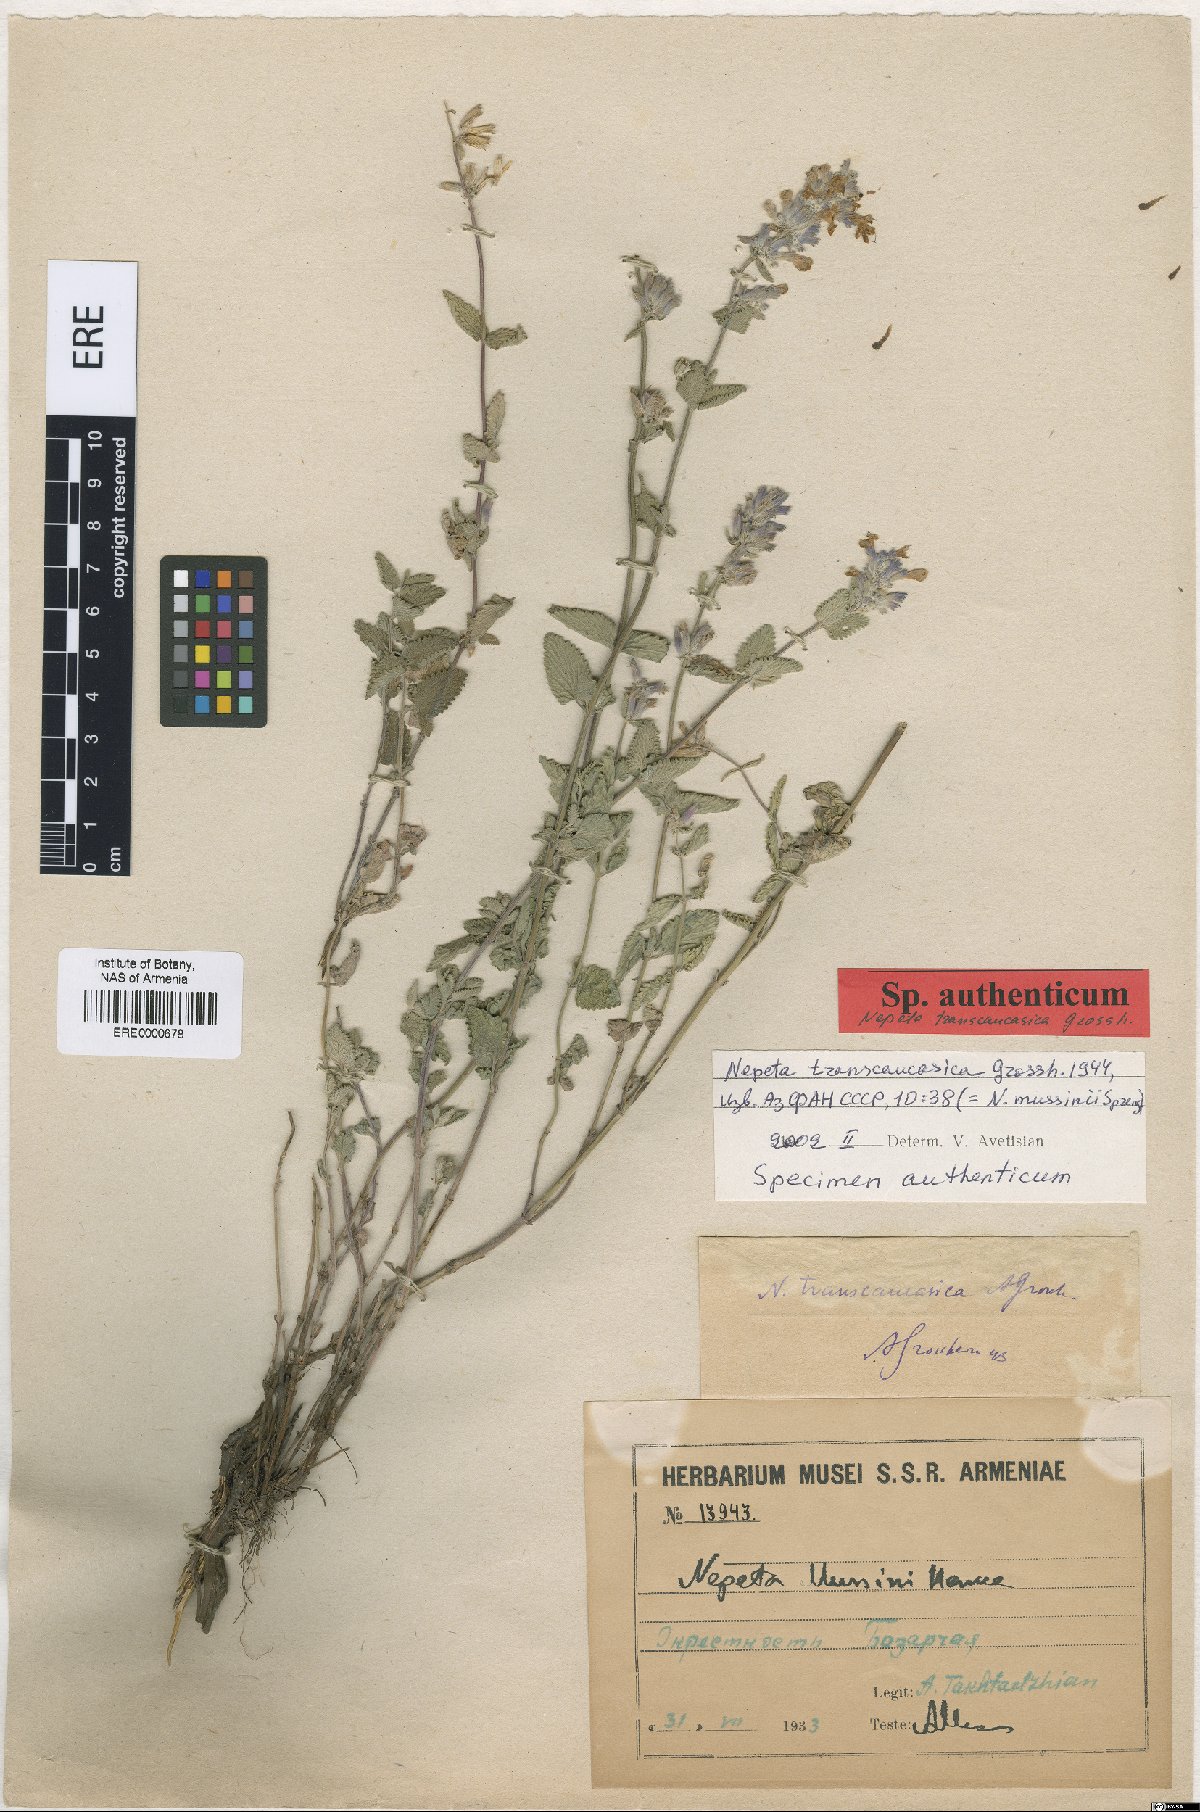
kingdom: Plantae
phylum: Tracheophyta
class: Magnoliopsida
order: Lamiales
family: Lamiaceae
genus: Nepeta
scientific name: Nepeta racemosa
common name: Raceme catnip
